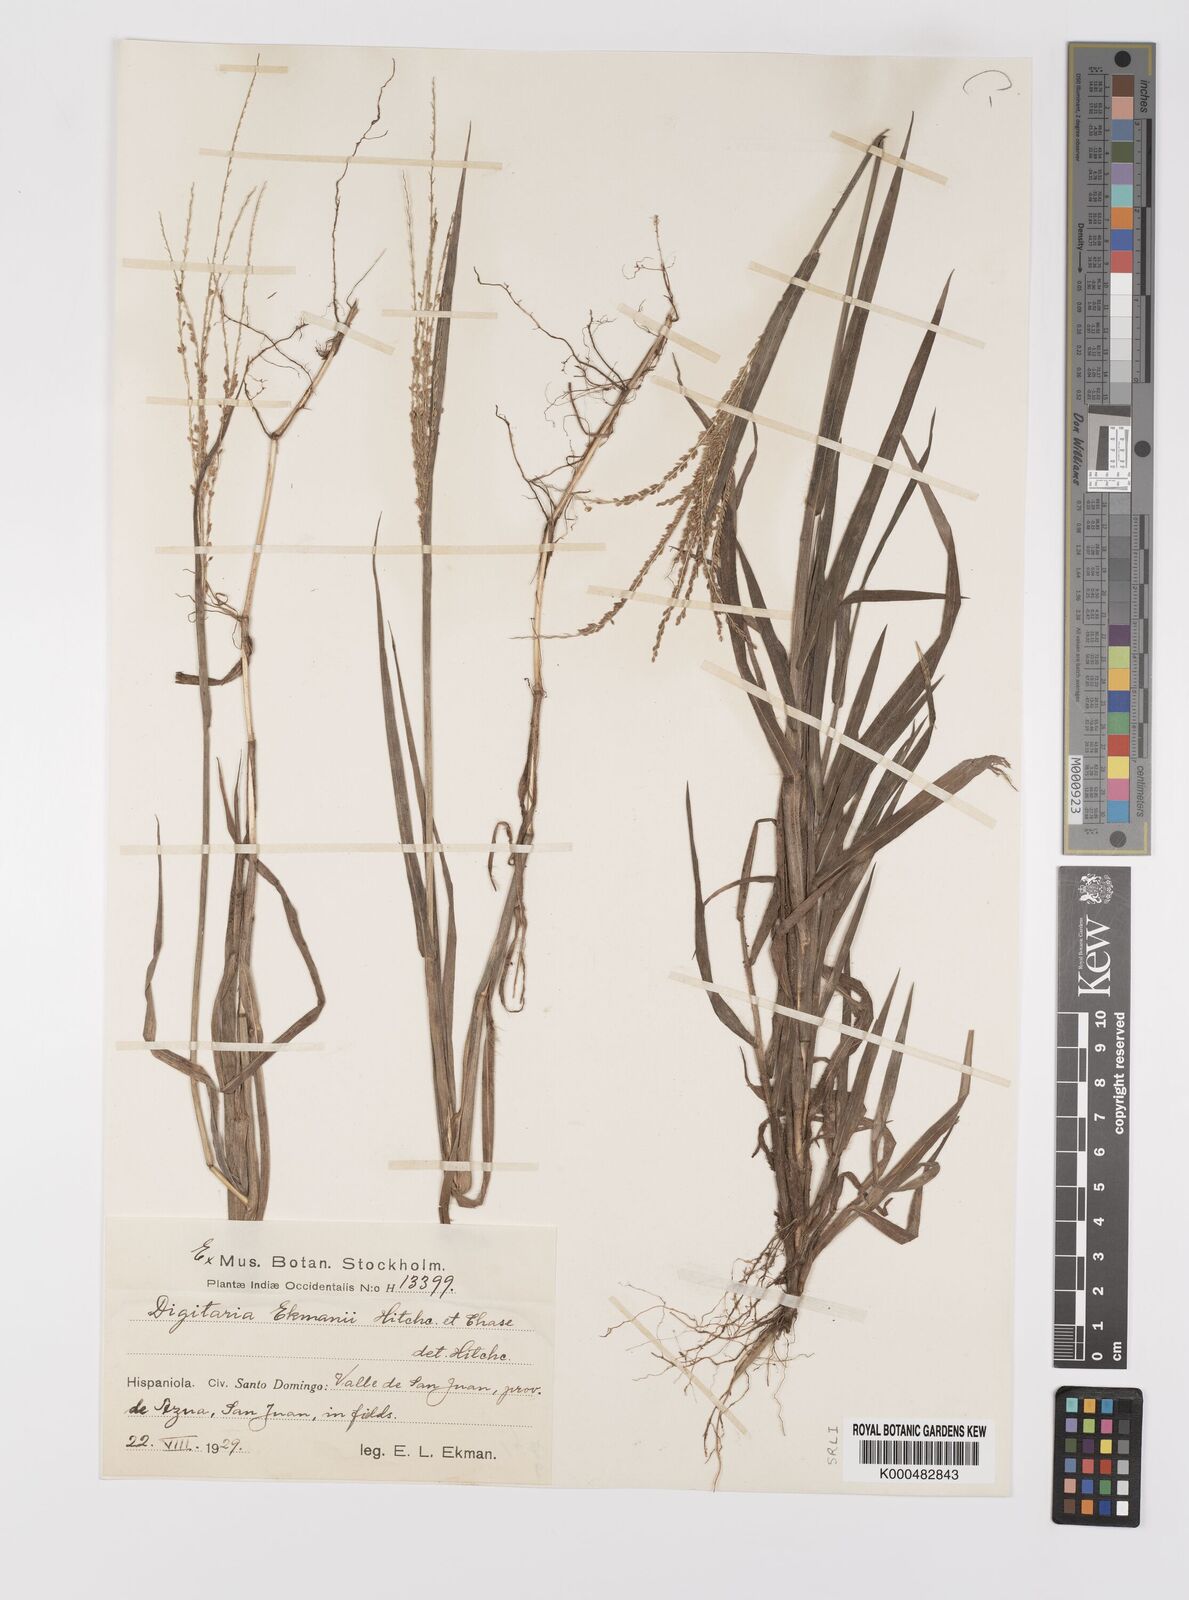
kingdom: Plantae
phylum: Tracheophyta
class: Liliopsida
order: Poales
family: Poaceae
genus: Digitaria
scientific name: Digitaria curvinervis
